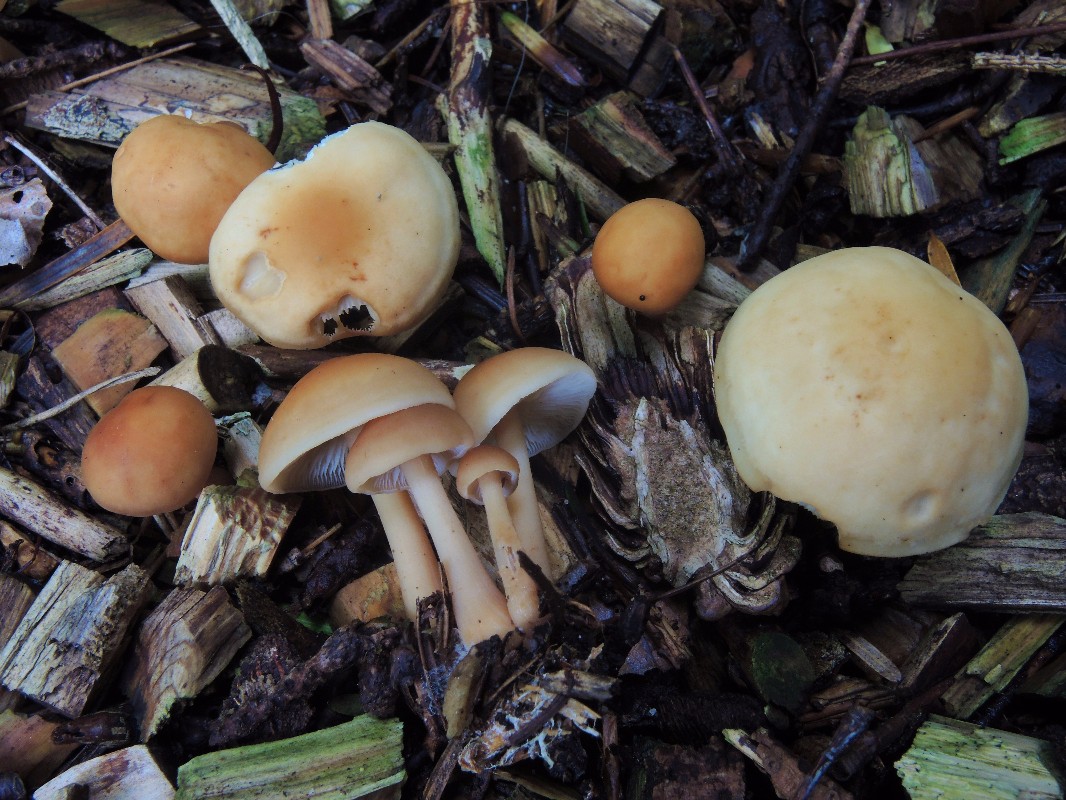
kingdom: Fungi
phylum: Basidiomycota
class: Agaricomycetes
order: Agaricales
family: Omphalotaceae
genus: Gymnopus
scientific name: Gymnopus dryophilus
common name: løv-fladhat
